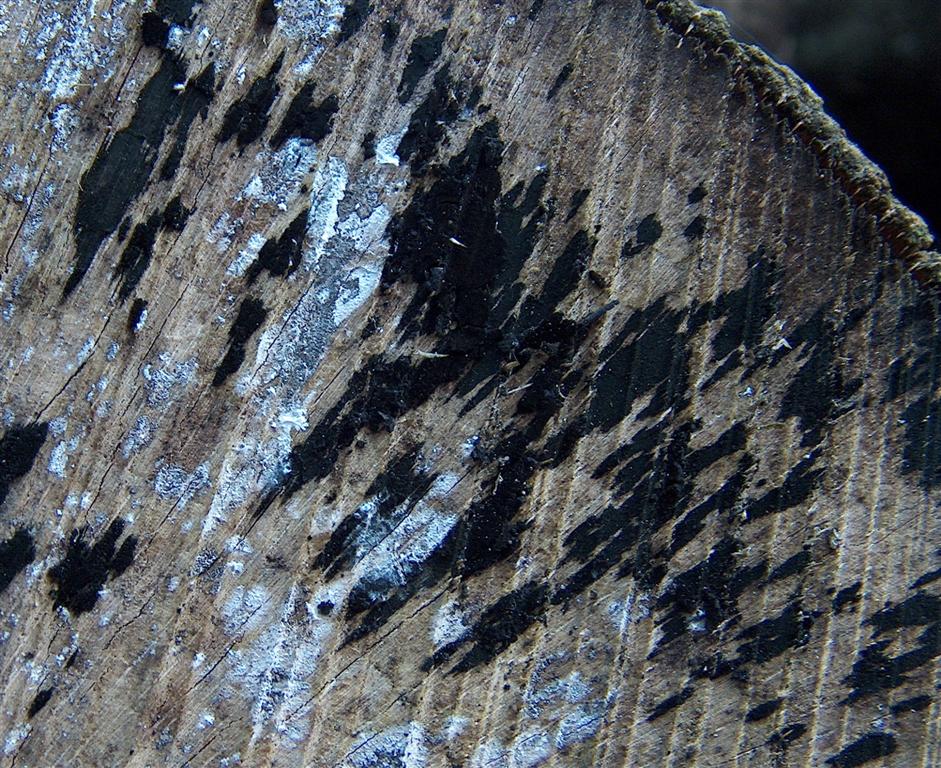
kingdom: Fungi
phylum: Ascomycota
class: Leotiomycetes
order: Helotiales
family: Helotiaceae
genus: Bispora
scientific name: Bispora pallescens
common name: måtte-snitskive
